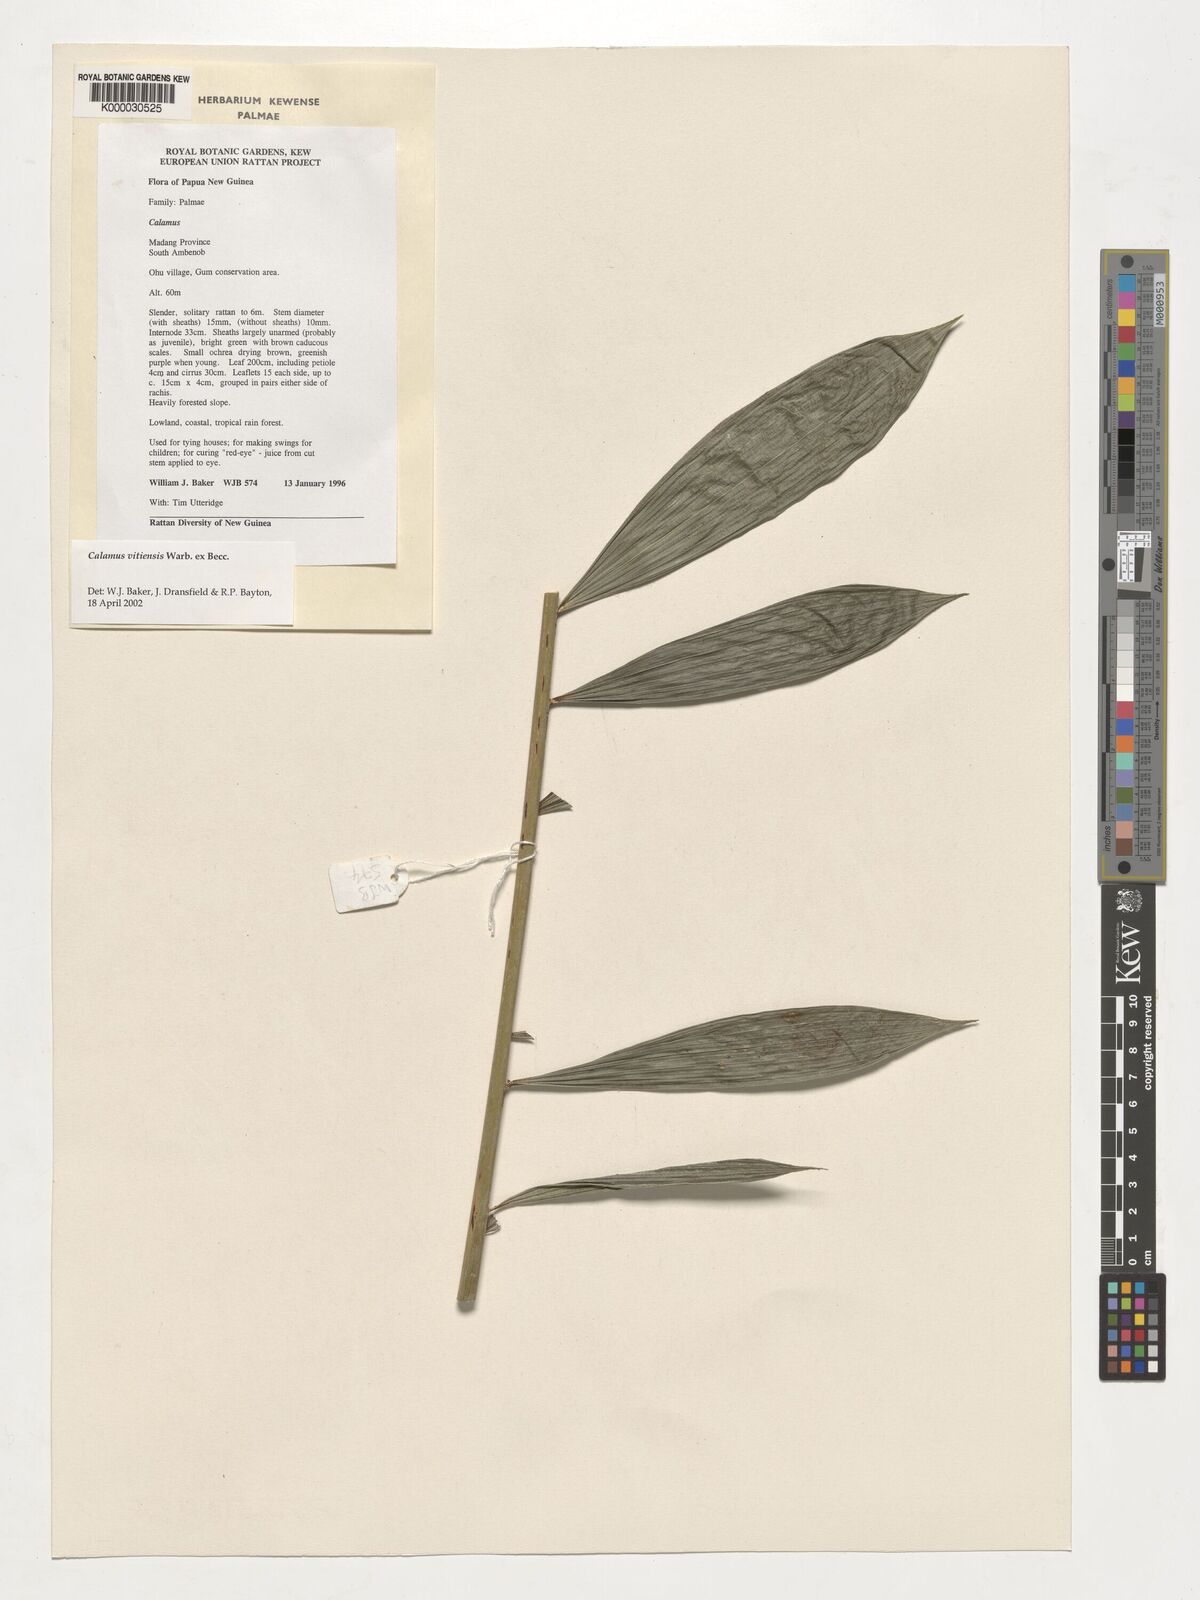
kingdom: Plantae
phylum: Tracheophyta
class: Liliopsida
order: Arecales
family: Arecaceae
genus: Calamus
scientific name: Calamus vitiensis
